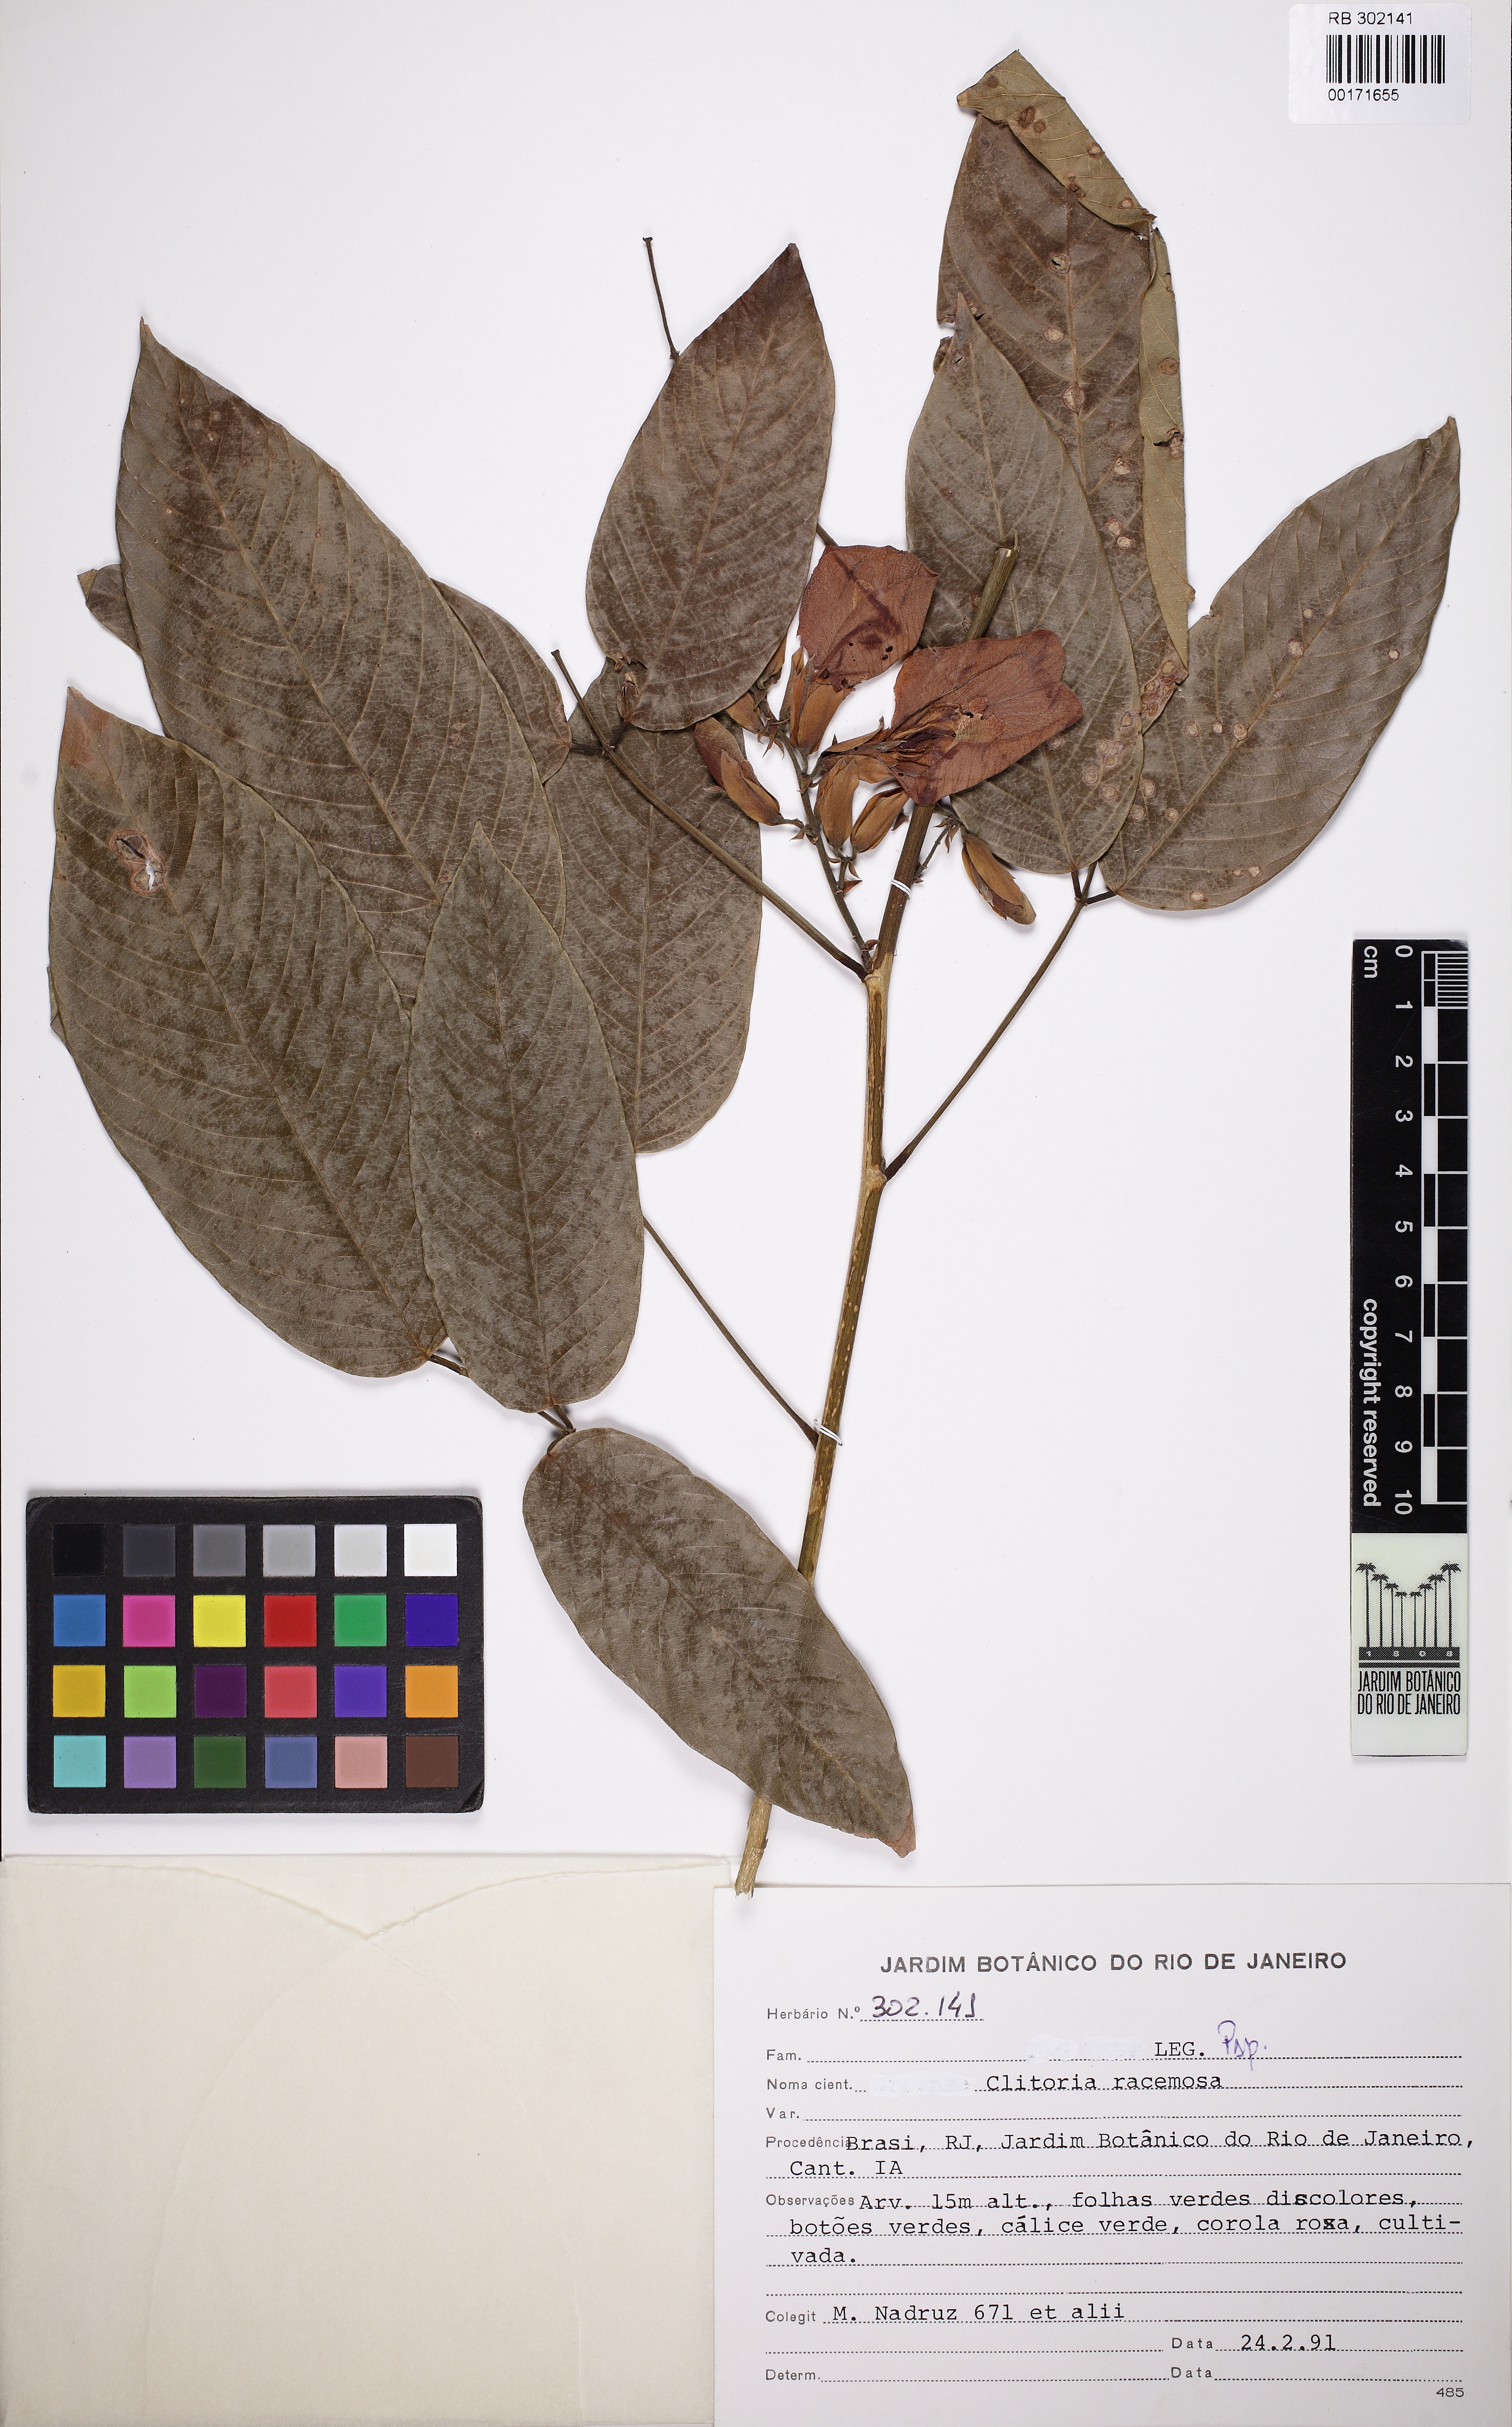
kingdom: Plantae
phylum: Tracheophyta
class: Magnoliopsida
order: Fabales
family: Fabaceae
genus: Clitoria
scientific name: Clitoria fairchildiana
